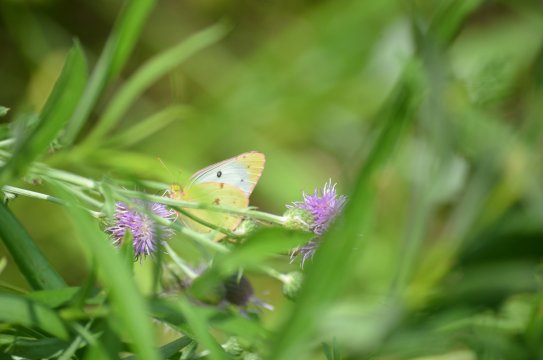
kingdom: Animalia
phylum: Arthropoda
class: Insecta
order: Lepidoptera
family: Pieridae
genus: Colias
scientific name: Colias philodice
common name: Clouded Sulphur
